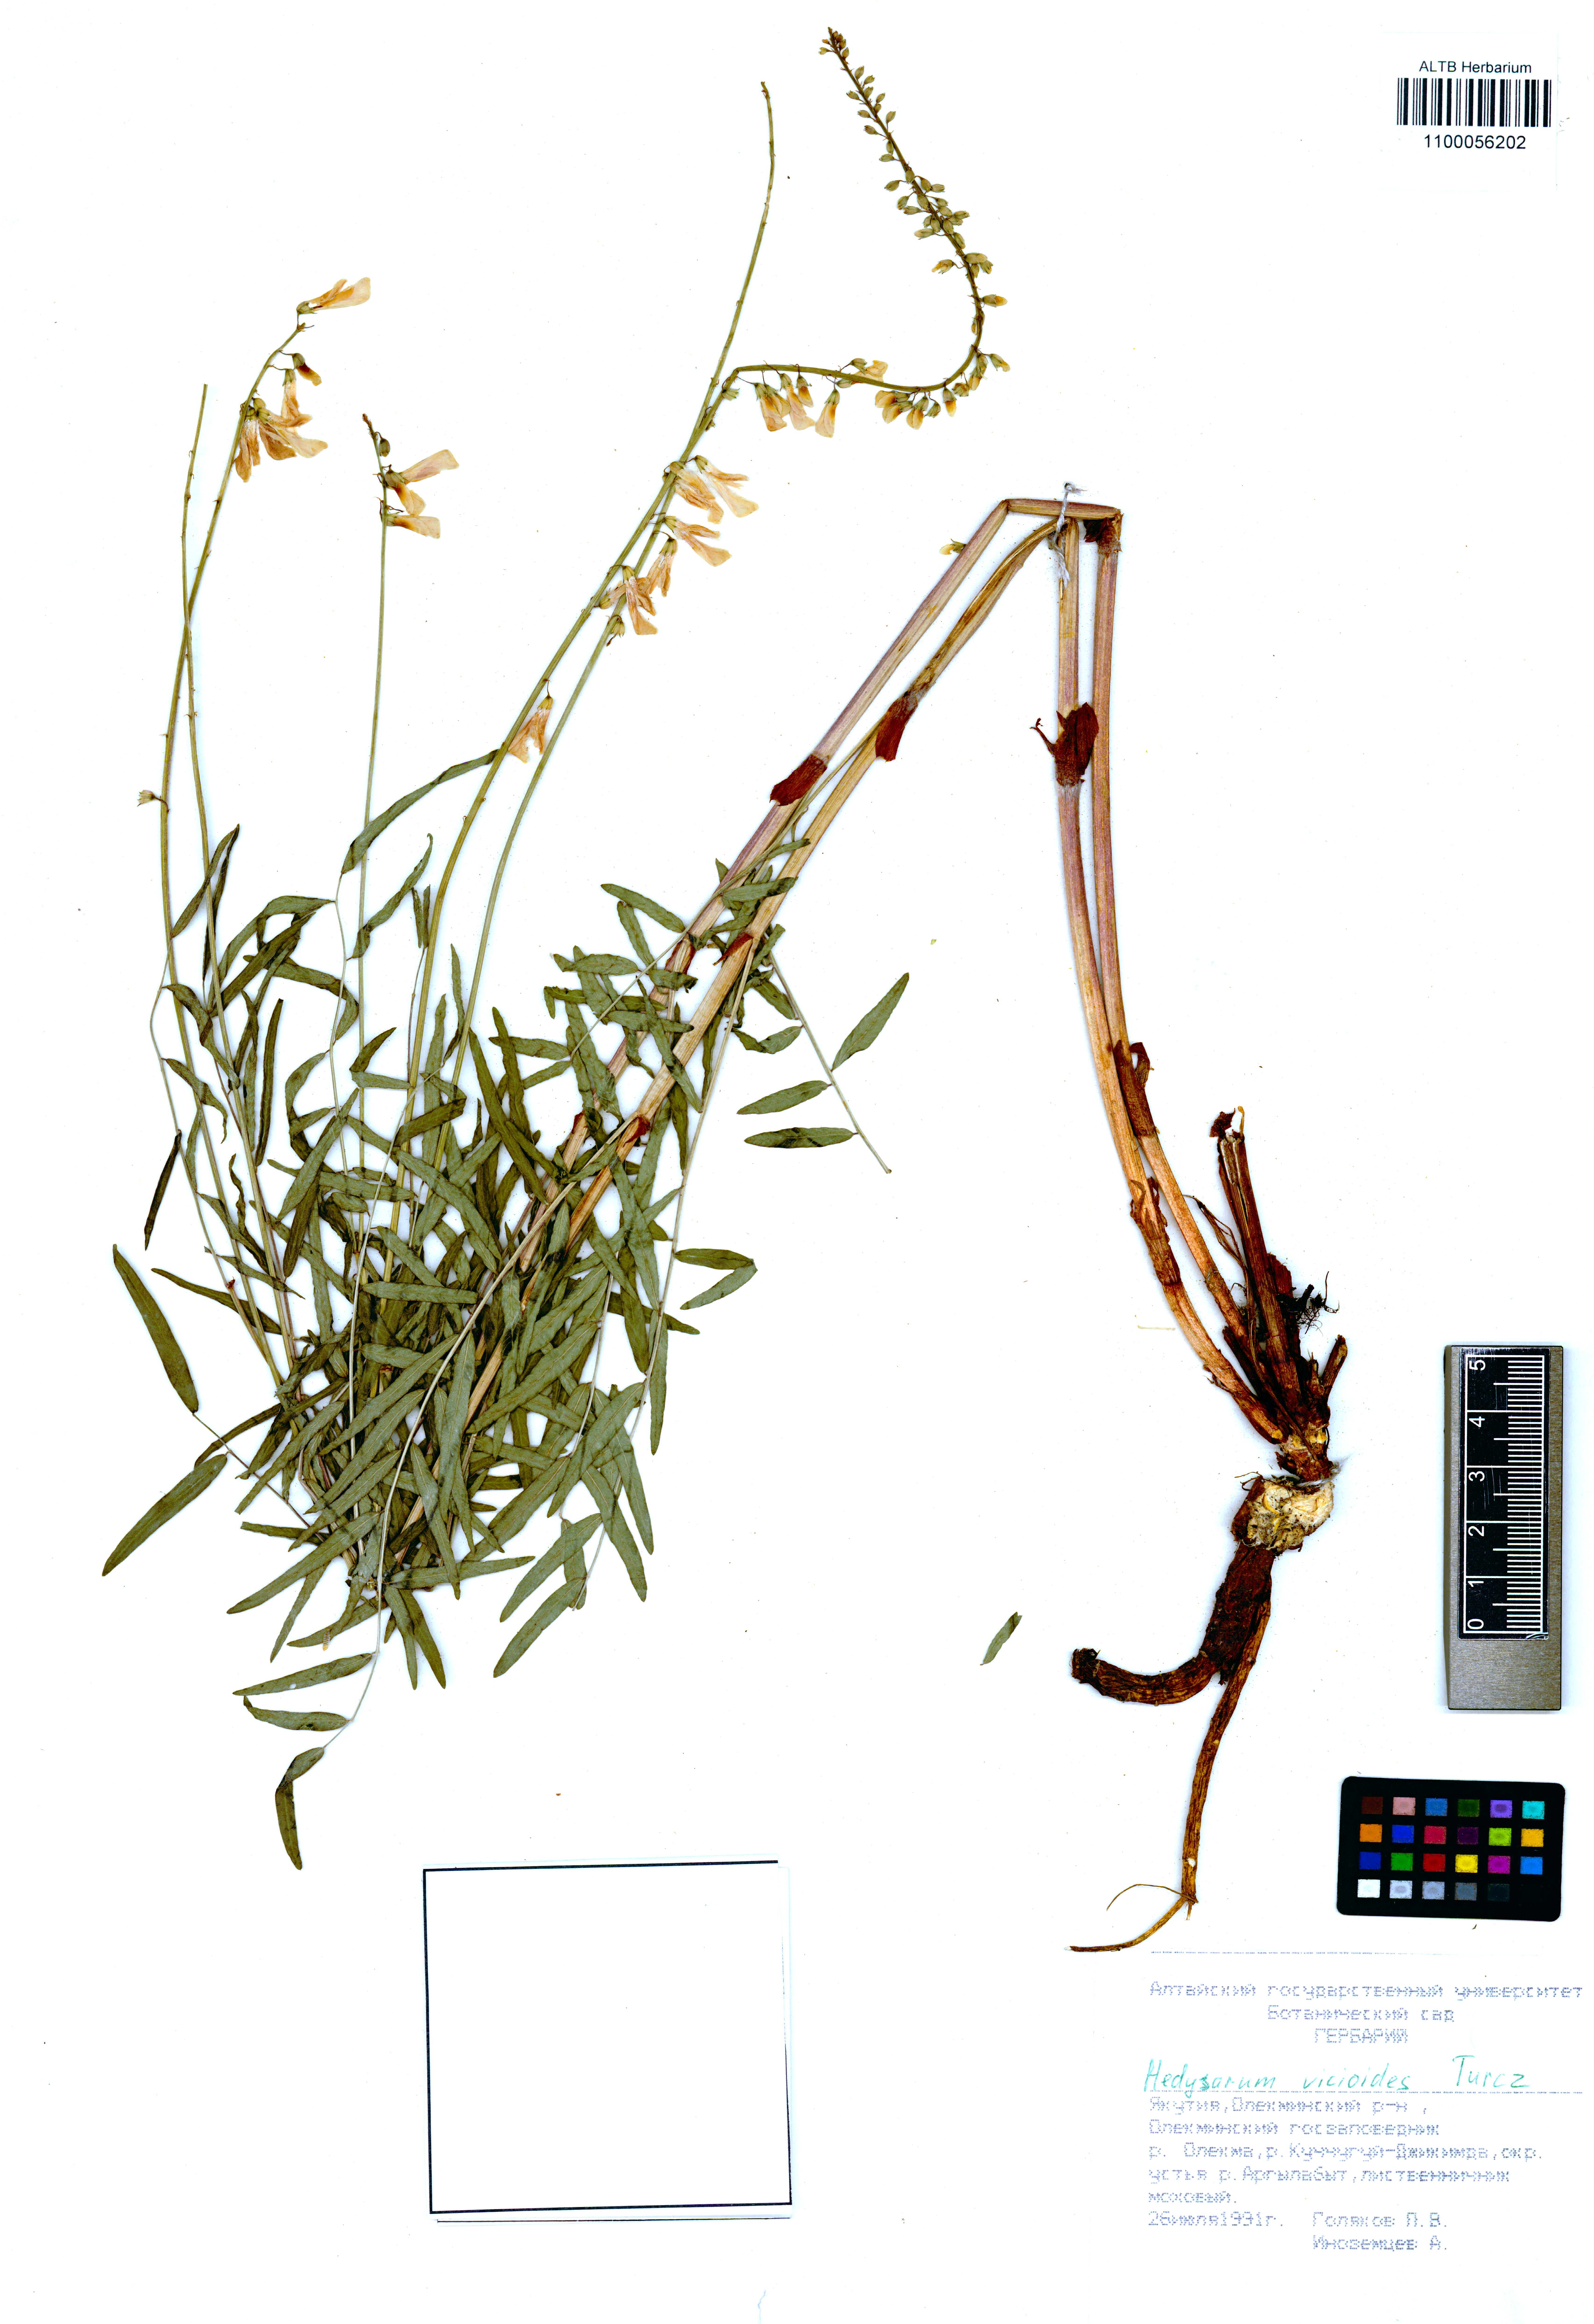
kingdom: Plantae
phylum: Tracheophyta
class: Magnoliopsida
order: Fabales
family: Fabaceae
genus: Hedysarum
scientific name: Hedysarum vicioides
